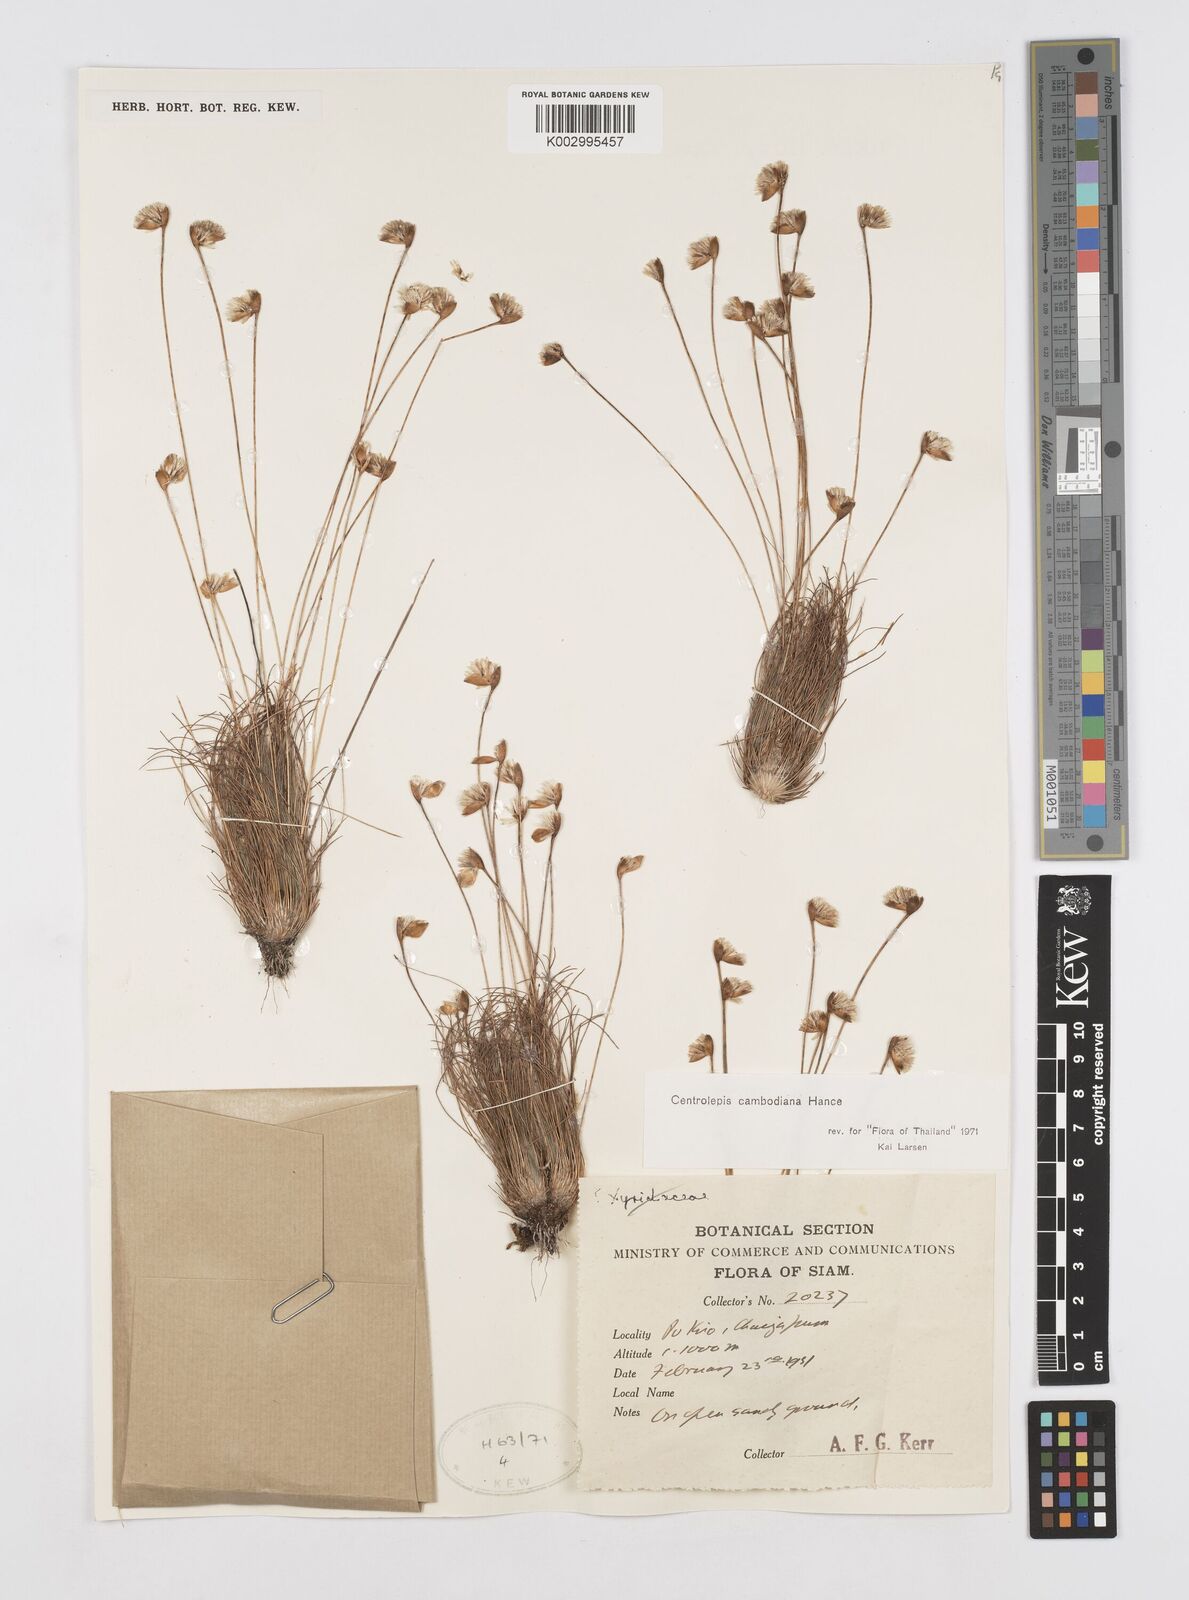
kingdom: Plantae
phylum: Tracheophyta
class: Liliopsida
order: Poales
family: Restionaceae
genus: Centrolepis
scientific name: Centrolepis cambodiana
